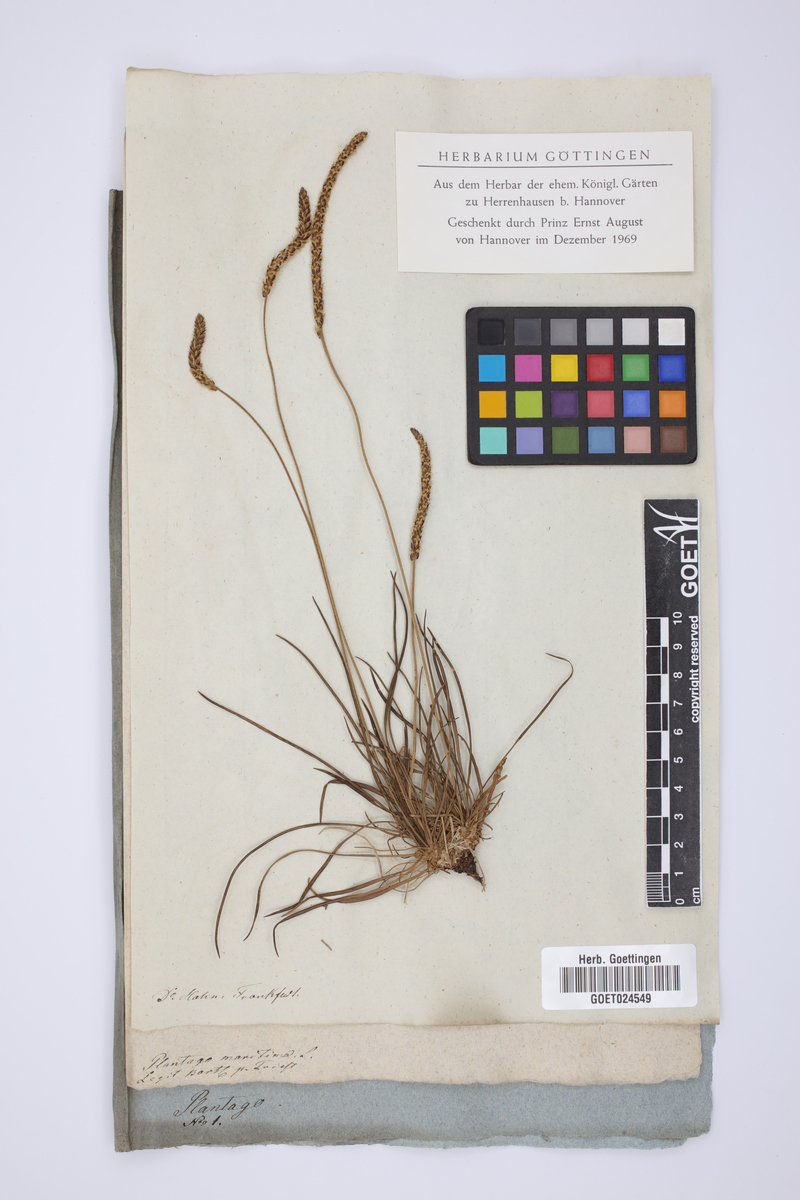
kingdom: Plantae
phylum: Tracheophyta
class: Magnoliopsida
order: Lamiales
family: Plantaginaceae
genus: Plantago
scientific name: Plantago maritima
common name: Sea plantain
